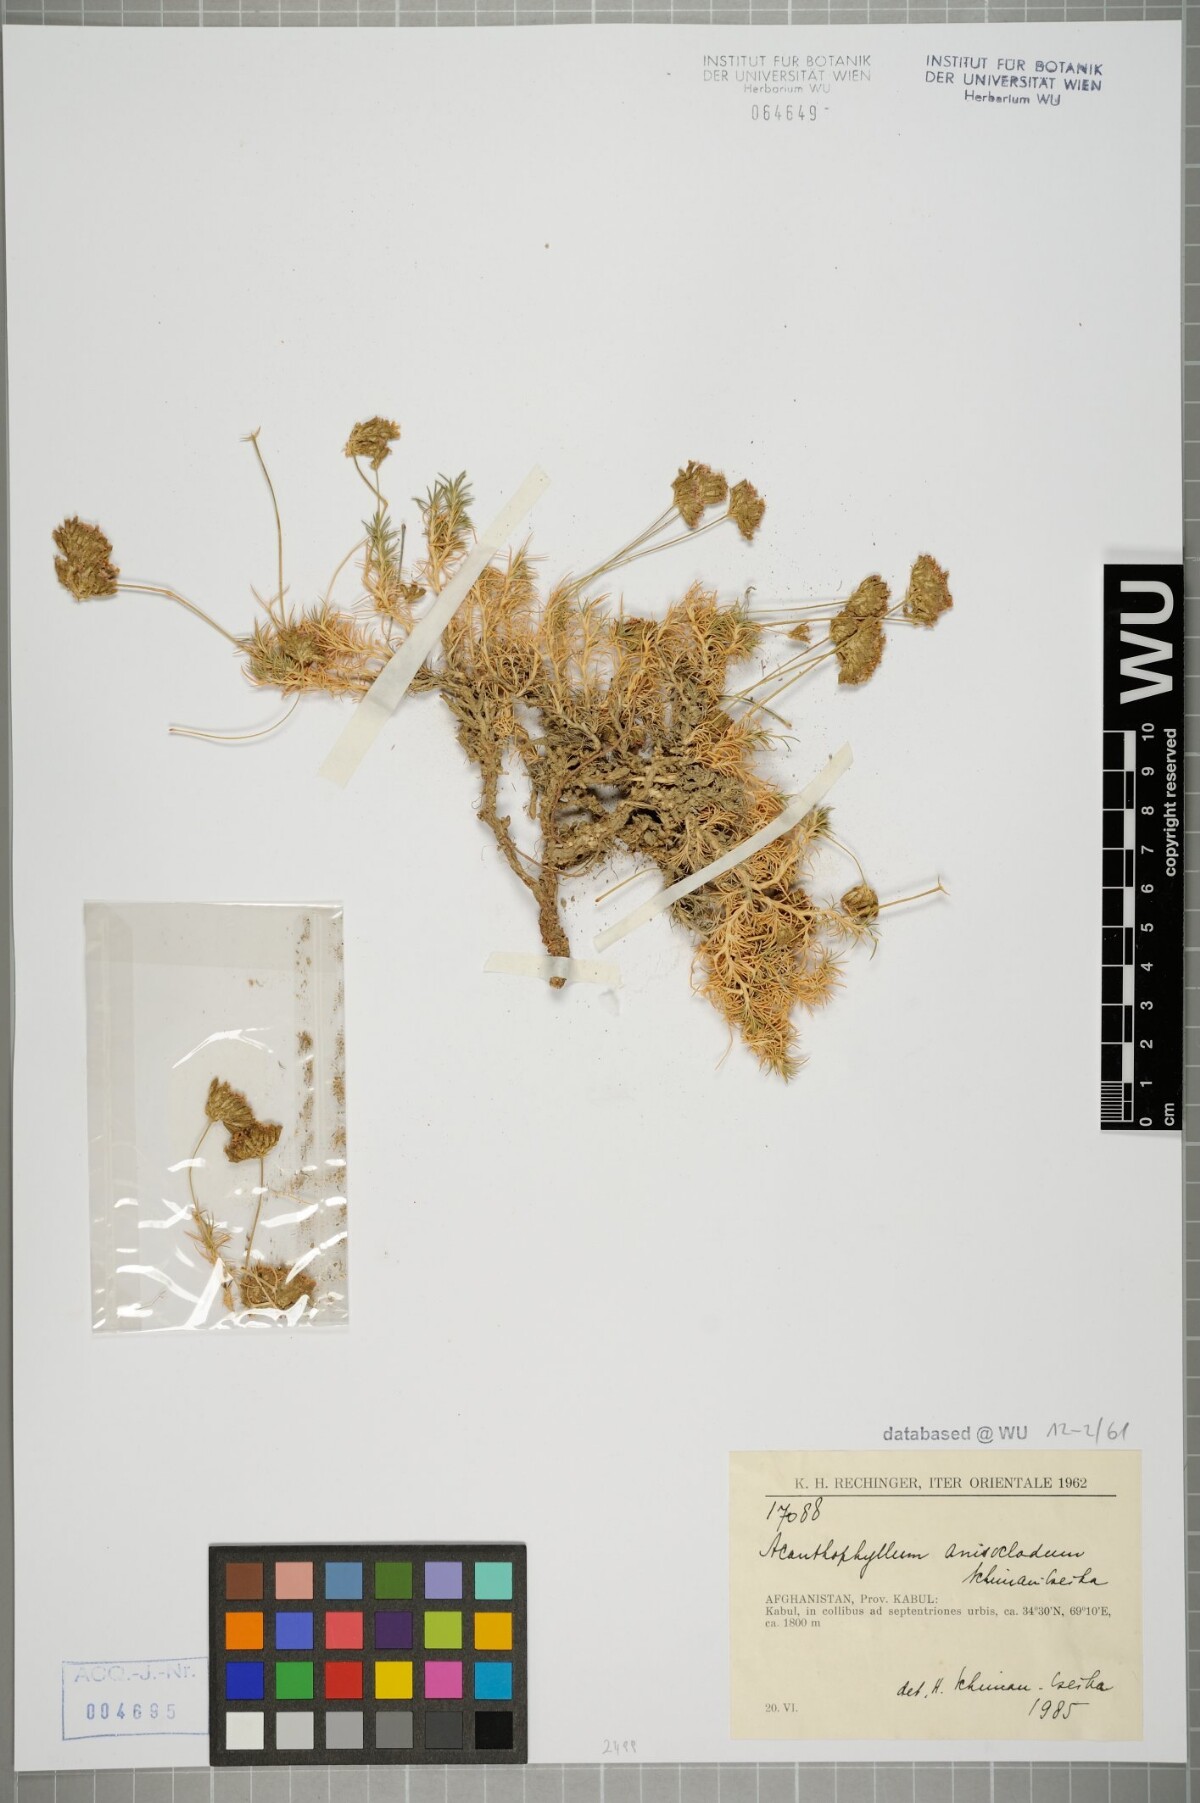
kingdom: Plantae
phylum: Tracheophyta
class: Magnoliopsida
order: Caryophyllales
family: Caryophyllaceae
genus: Acanthophyllum
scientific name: Acanthophyllum andarabicum
